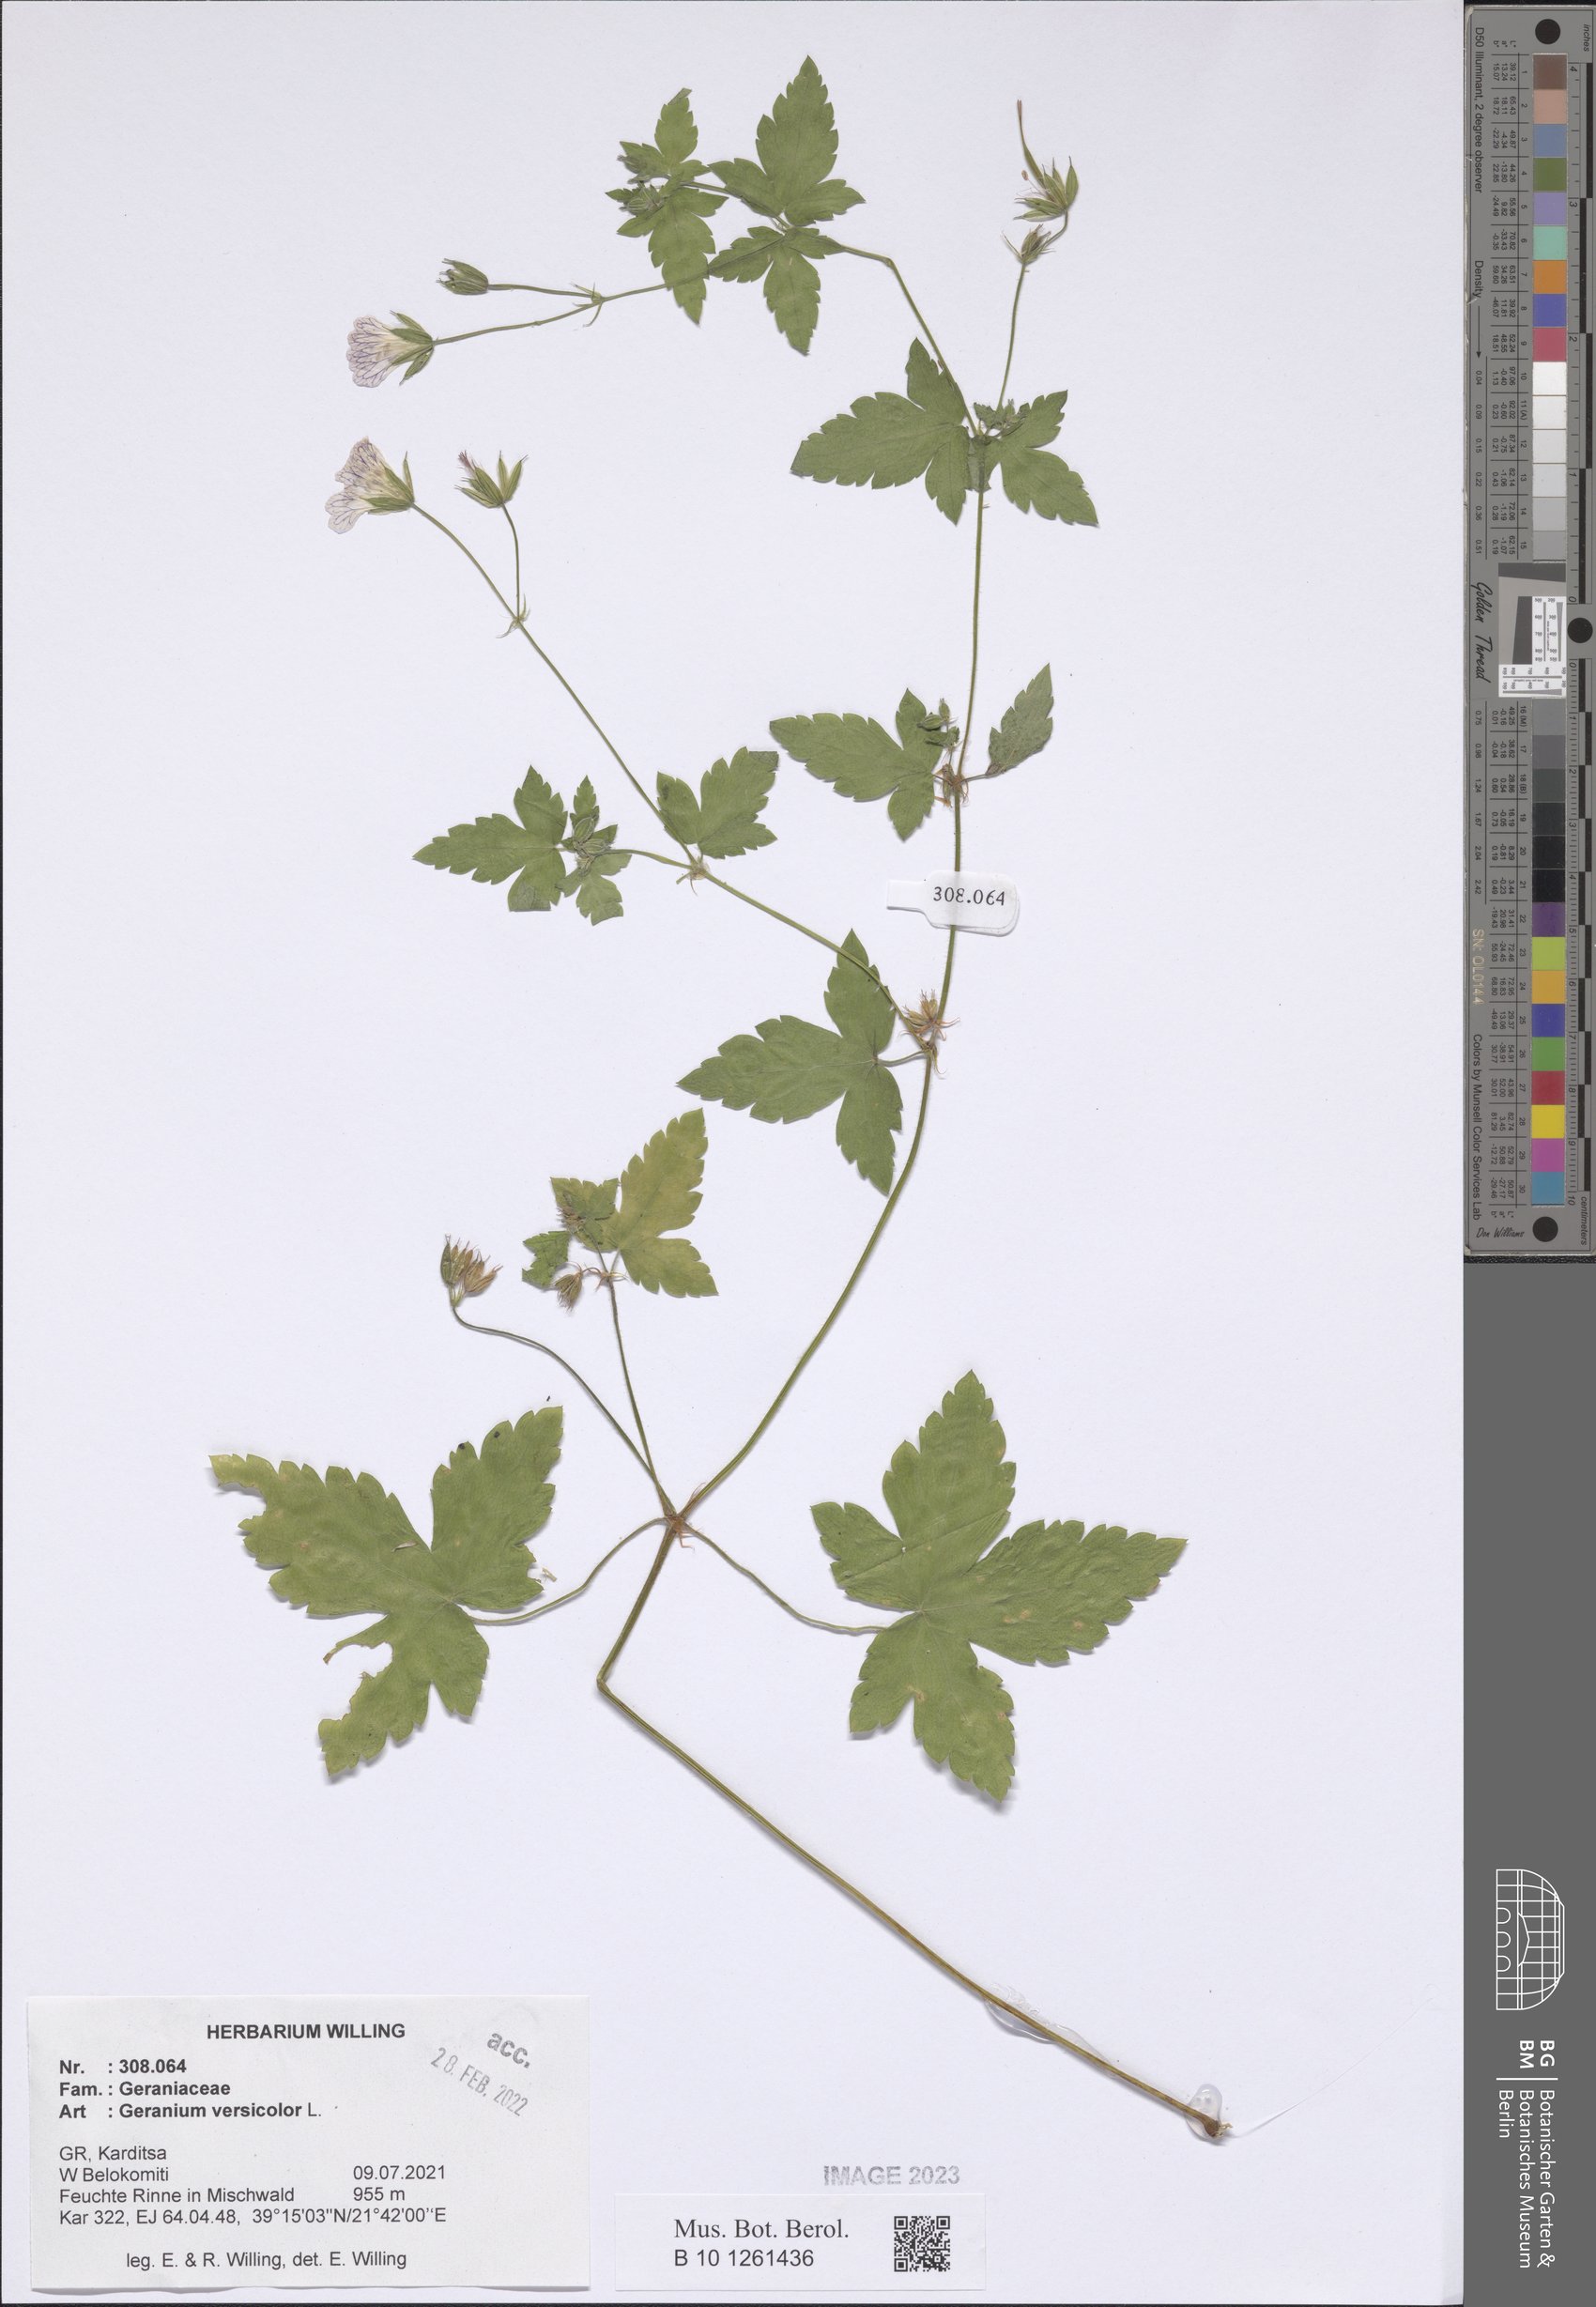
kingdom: Plantae
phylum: Tracheophyta
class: Magnoliopsida
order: Geraniales
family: Geraniaceae
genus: Geranium
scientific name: Geranium versicolor
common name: Pencilled crane's-bill
